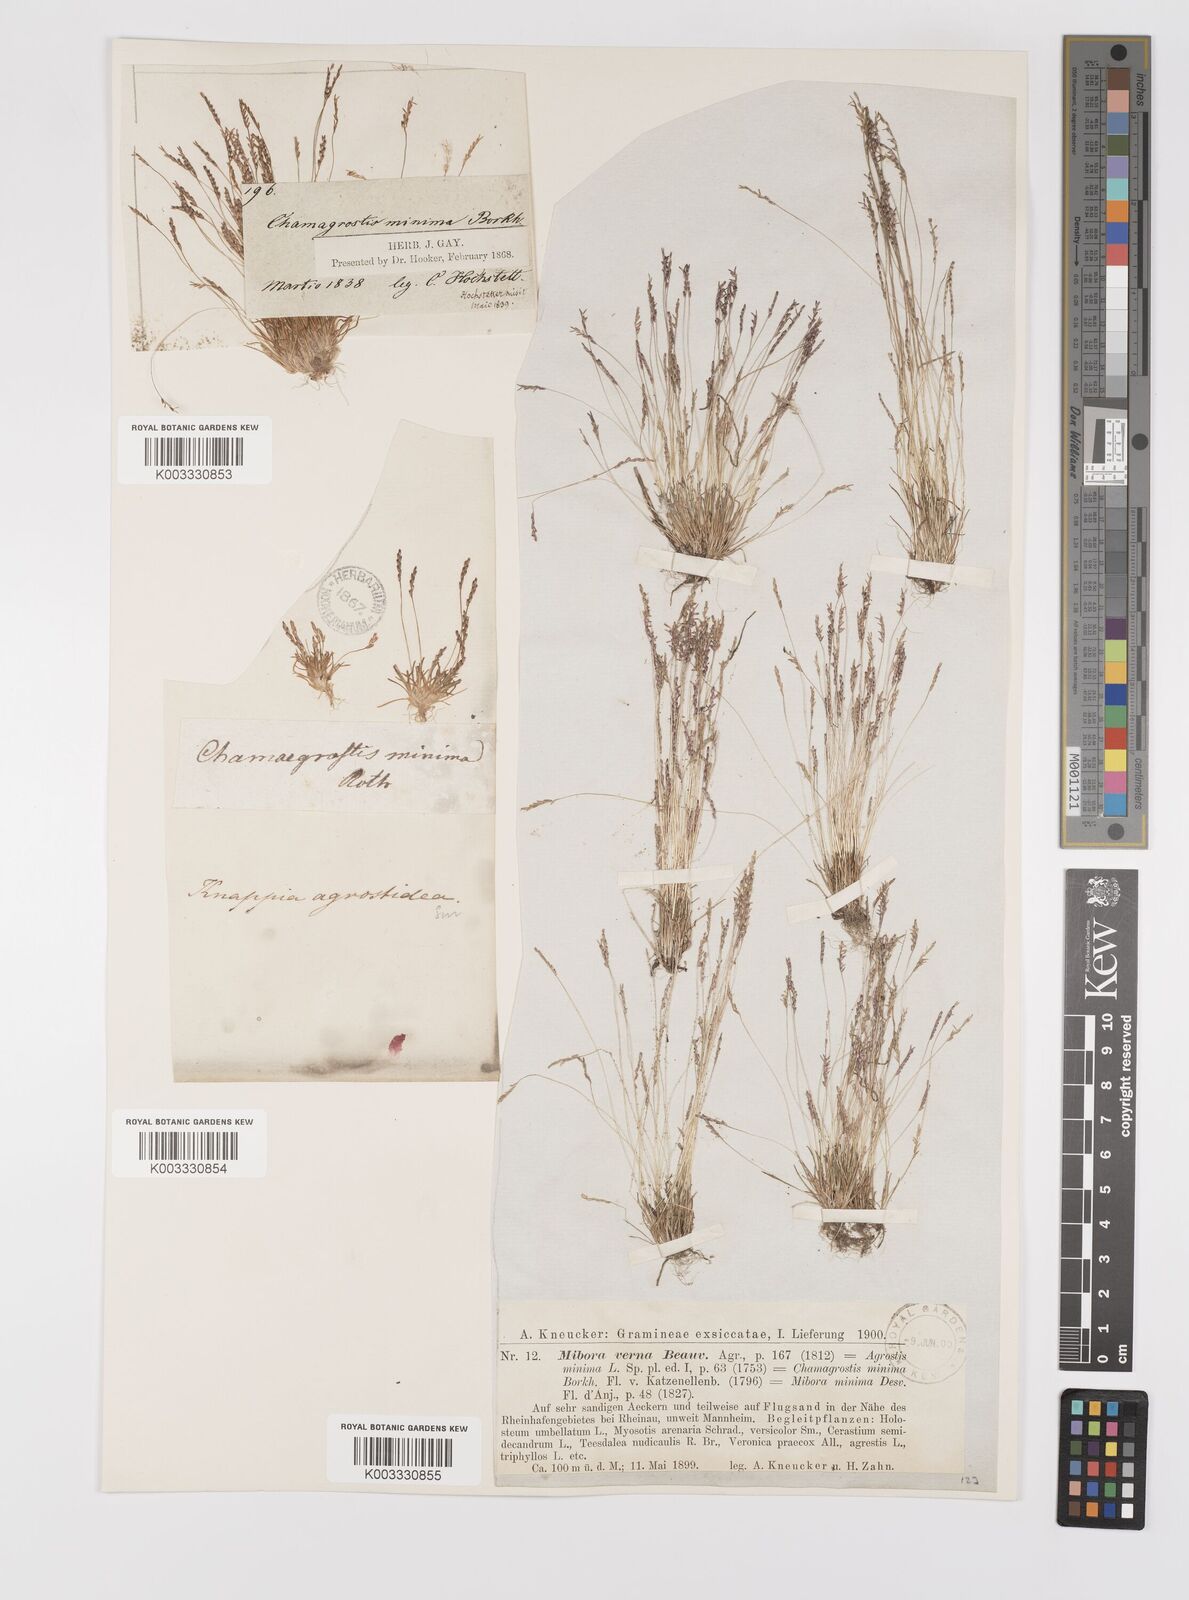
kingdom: Plantae
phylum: Tracheophyta
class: Liliopsida
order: Poales
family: Poaceae
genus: Mibora
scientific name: Mibora minima
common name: Early sand-grass
